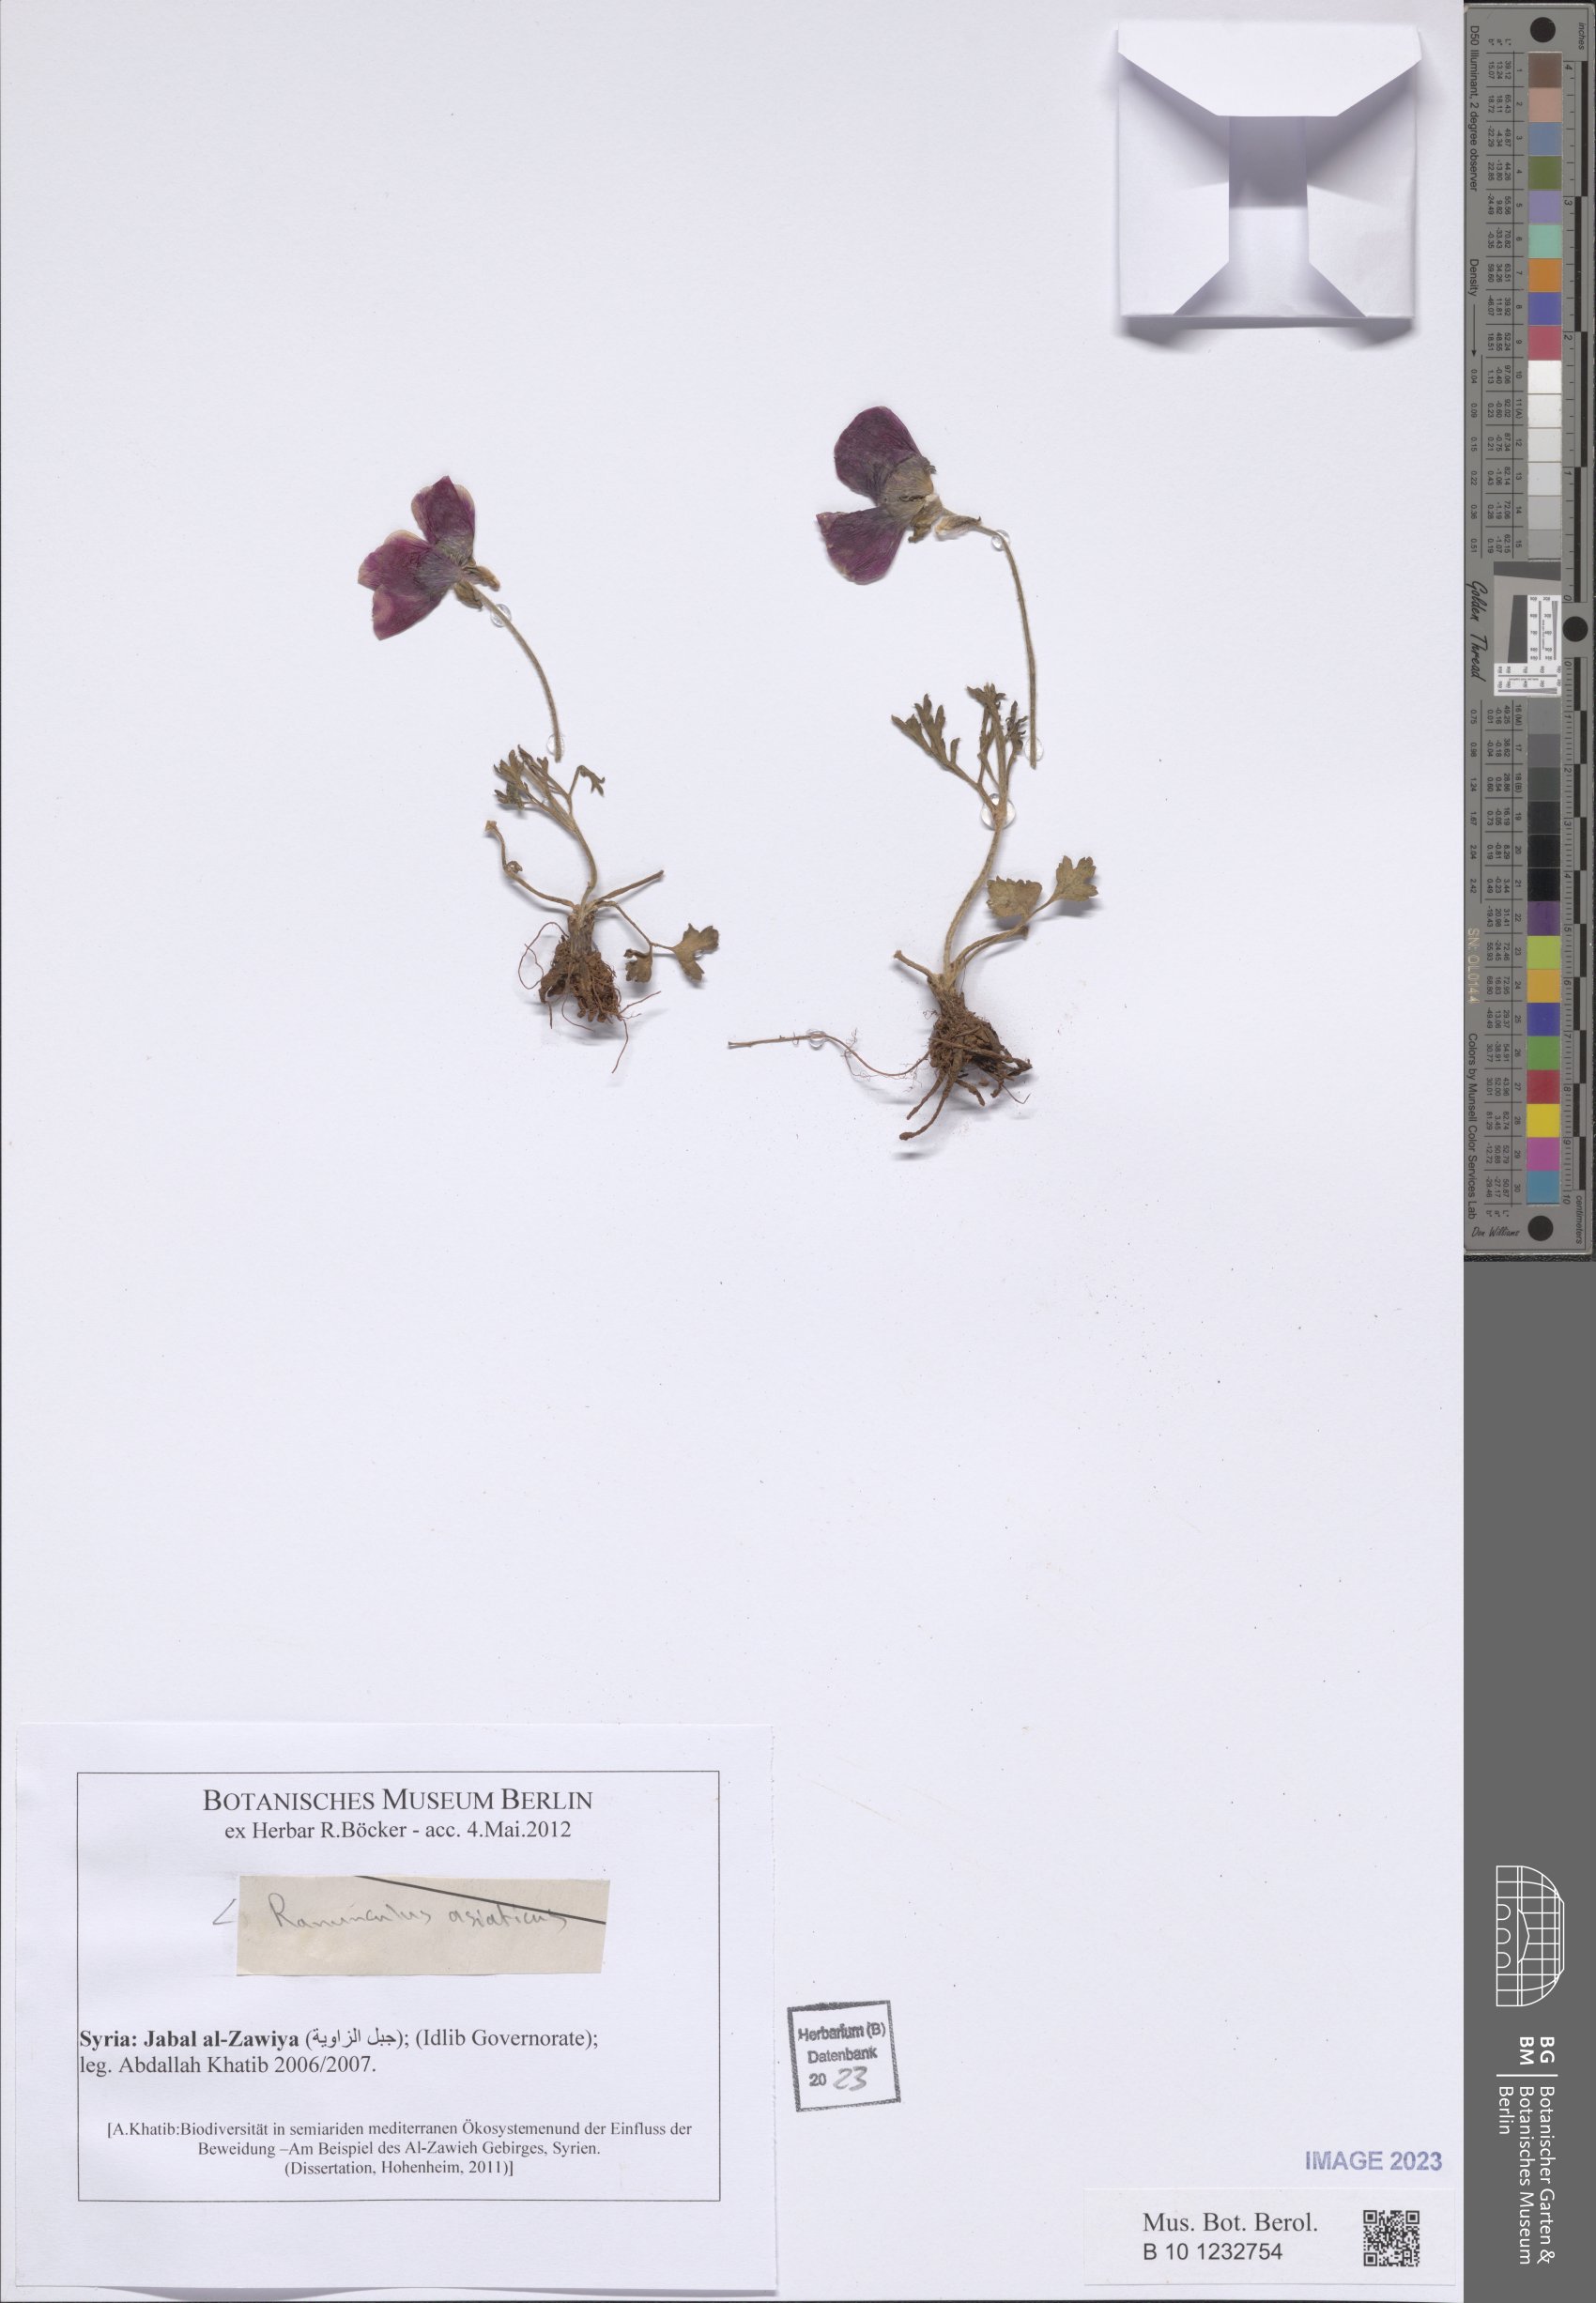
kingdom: Plantae
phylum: Tracheophyta
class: Magnoliopsida
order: Ranunculales
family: Ranunculaceae
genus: Ranunculus
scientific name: Ranunculus asiaticus
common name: Persian buttercup
